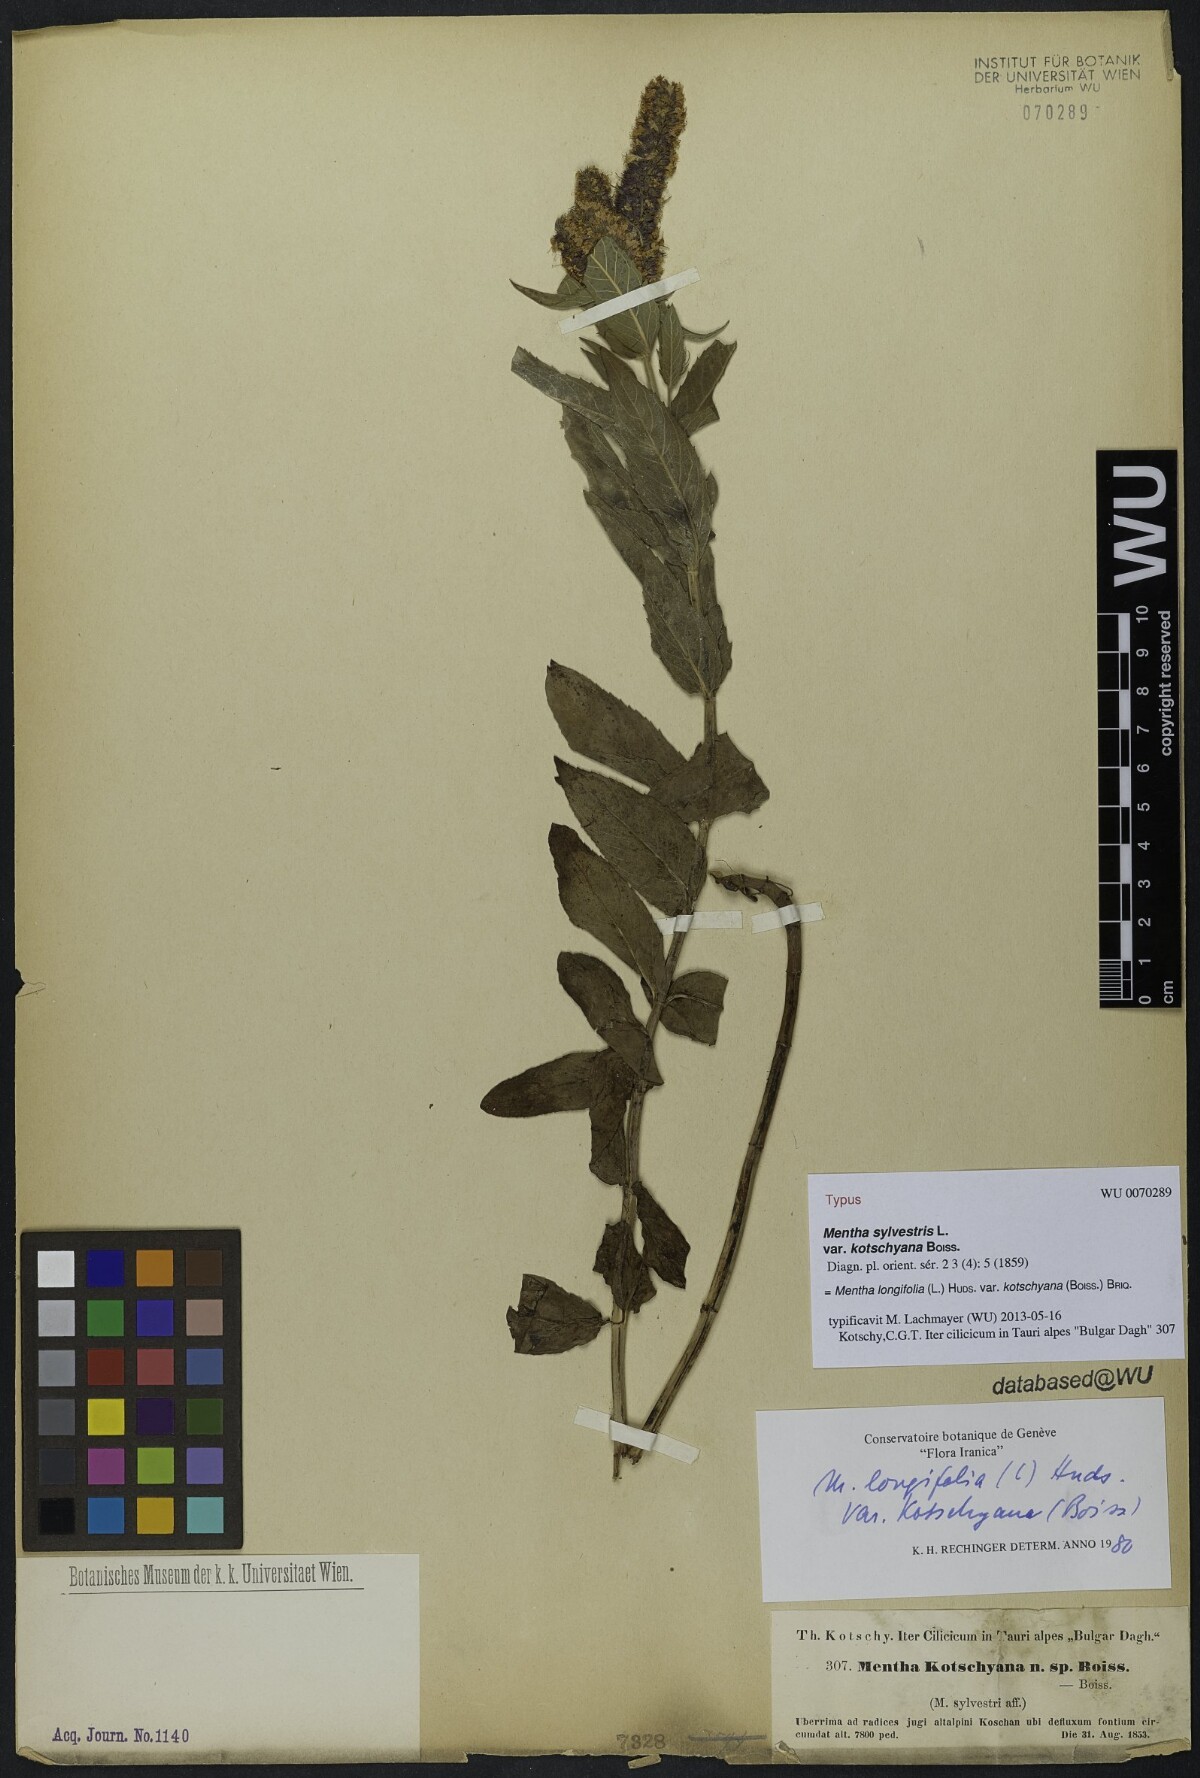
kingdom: Plantae
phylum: Tracheophyta
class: Magnoliopsida
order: Lamiales
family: Lamiaceae
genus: Mentha
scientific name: Mentha longifolia
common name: Horse mint
